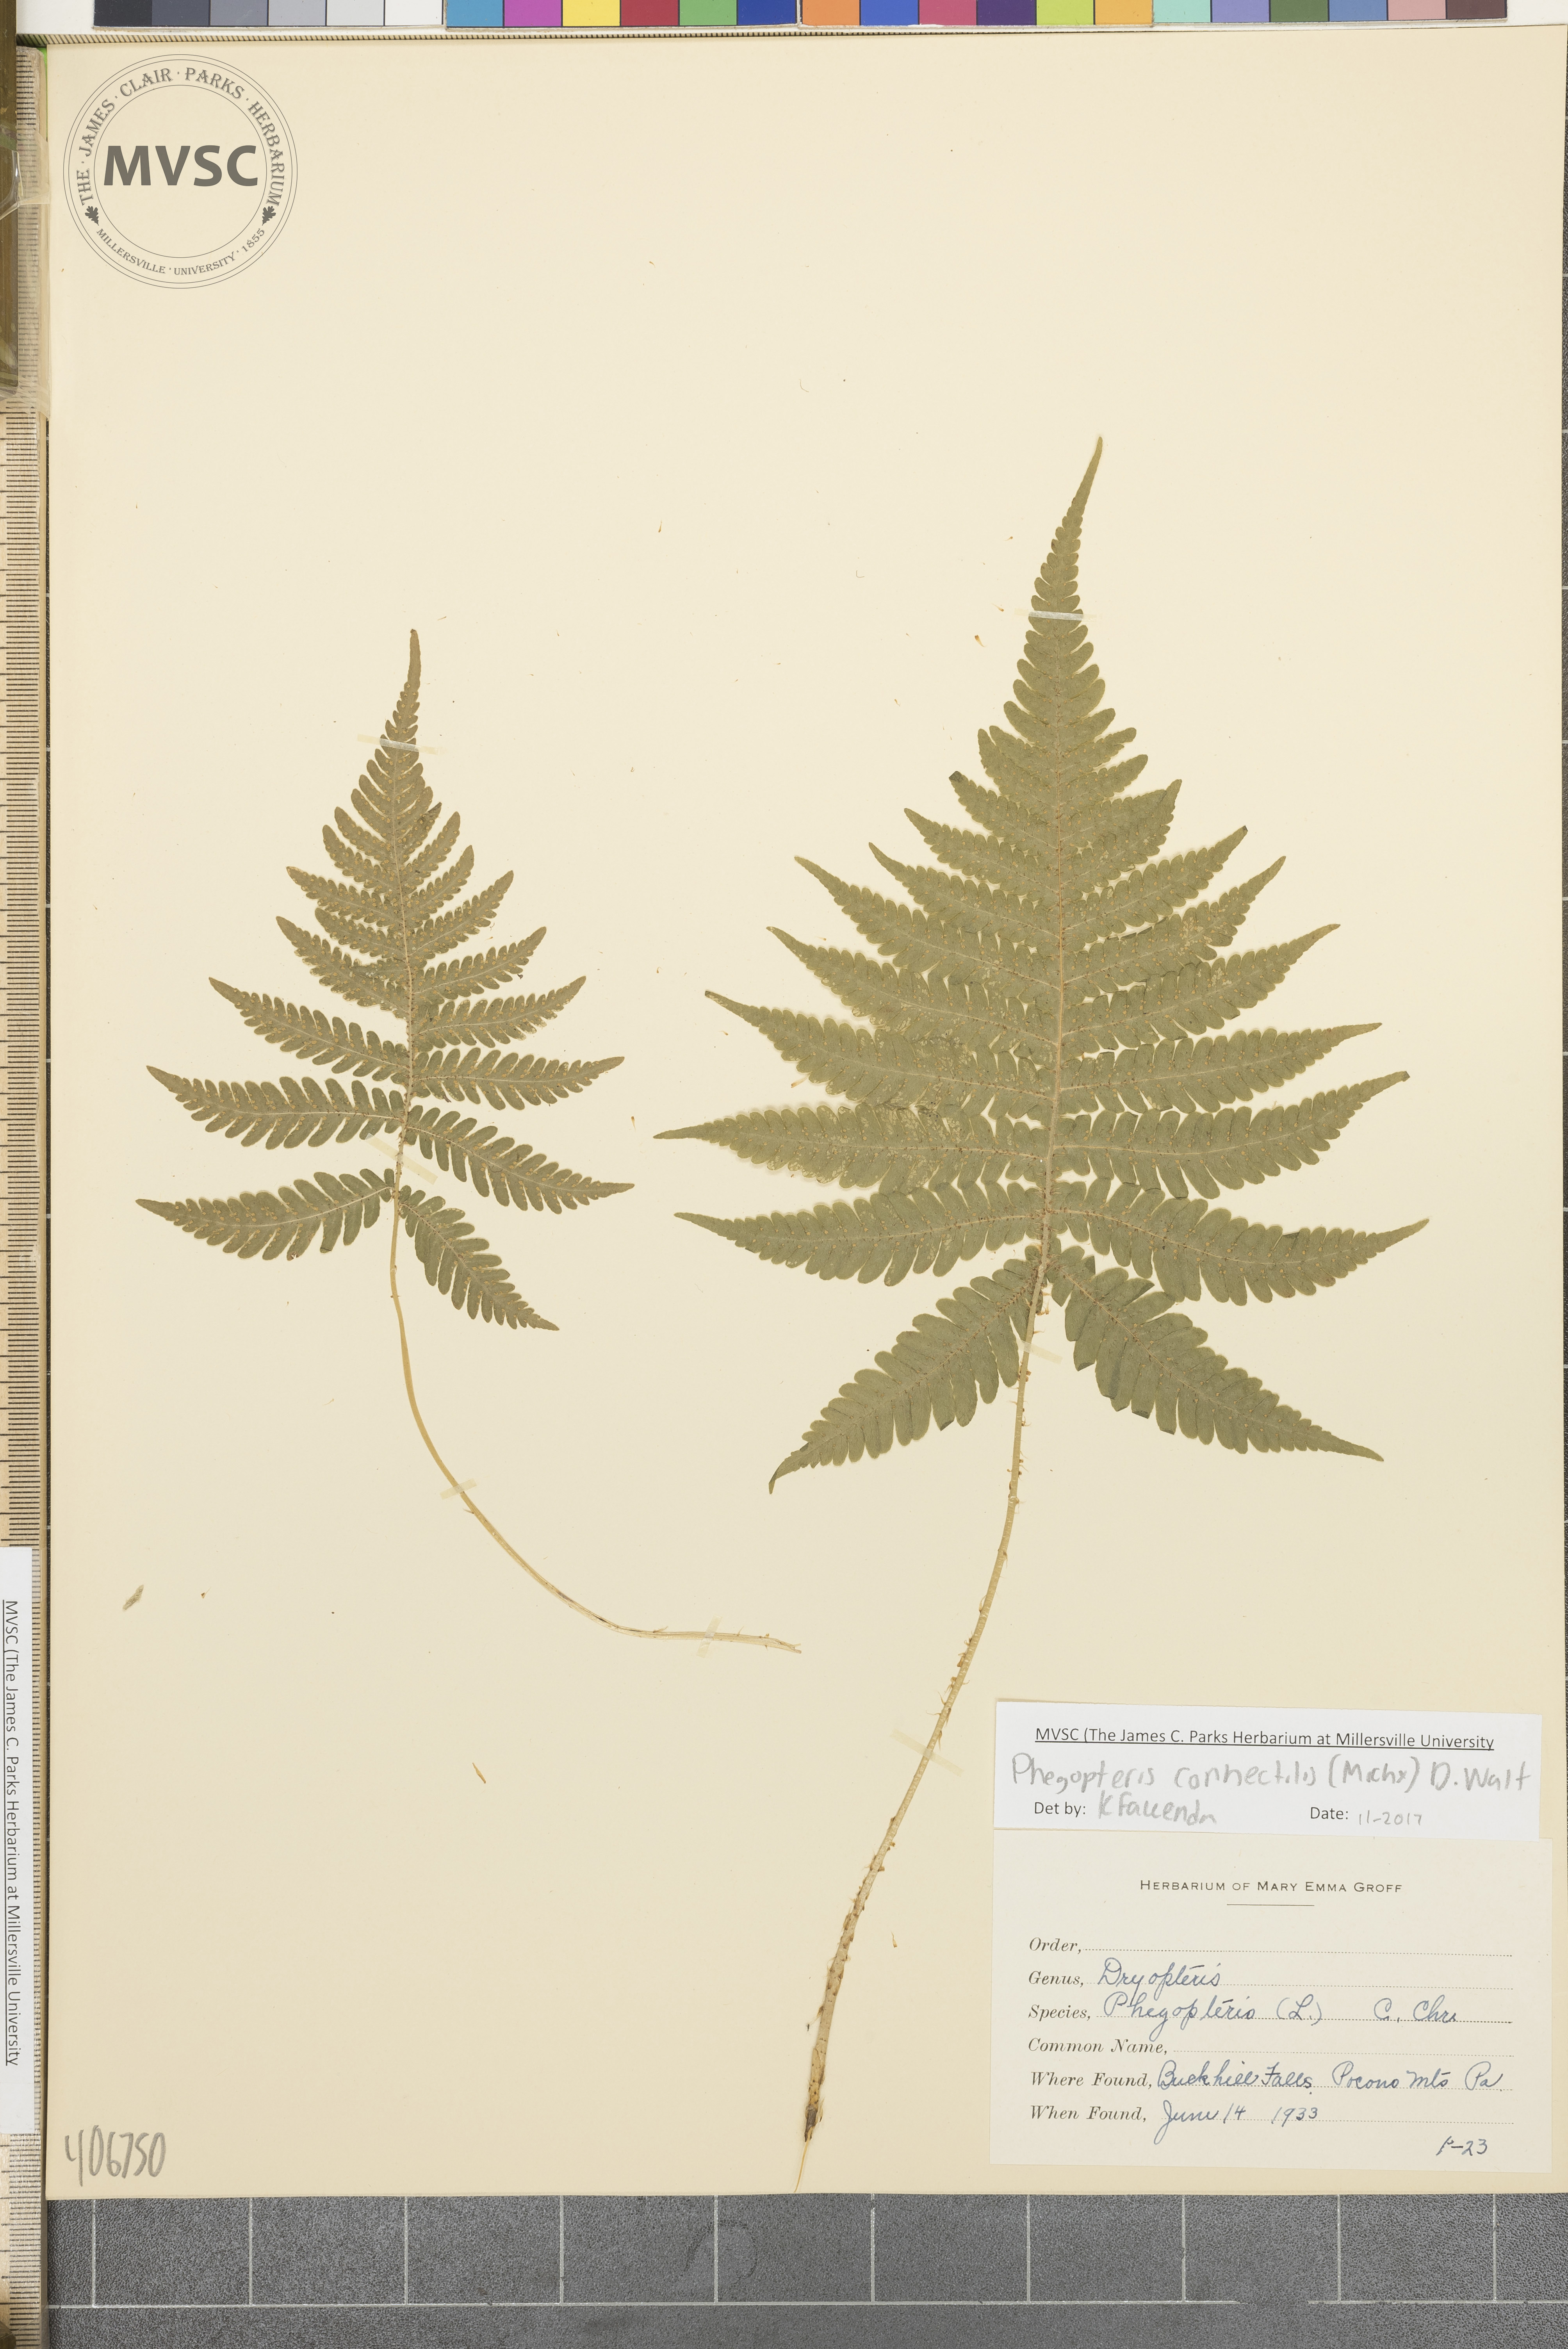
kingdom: Plantae
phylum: Tracheophyta
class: Polypodiopsida
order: Polypodiales
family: Thelypteridaceae
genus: Phegopteris
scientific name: Phegopteris connectilis
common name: Long beech fern
